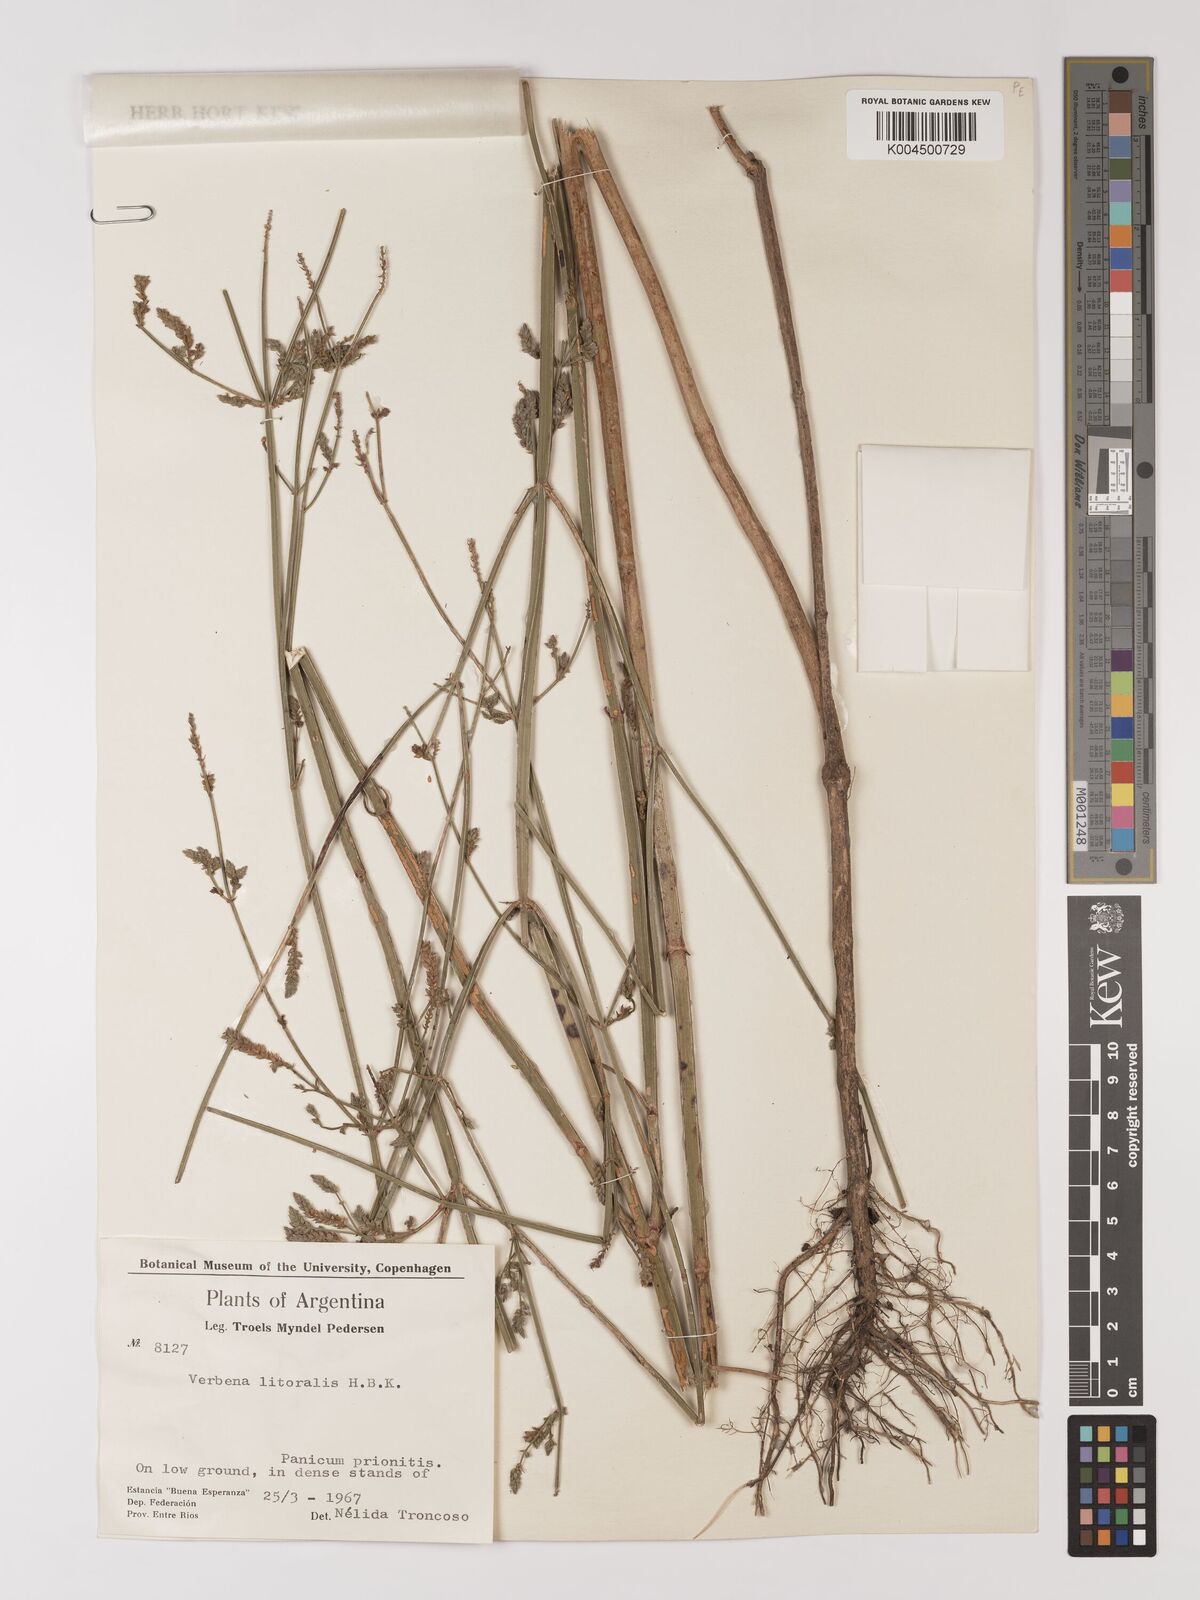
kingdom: Plantae
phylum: Tracheophyta
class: Magnoliopsida
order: Lamiales
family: Verbenaceae
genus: Verbena
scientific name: Verbena litoralis
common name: Seashore vervain
